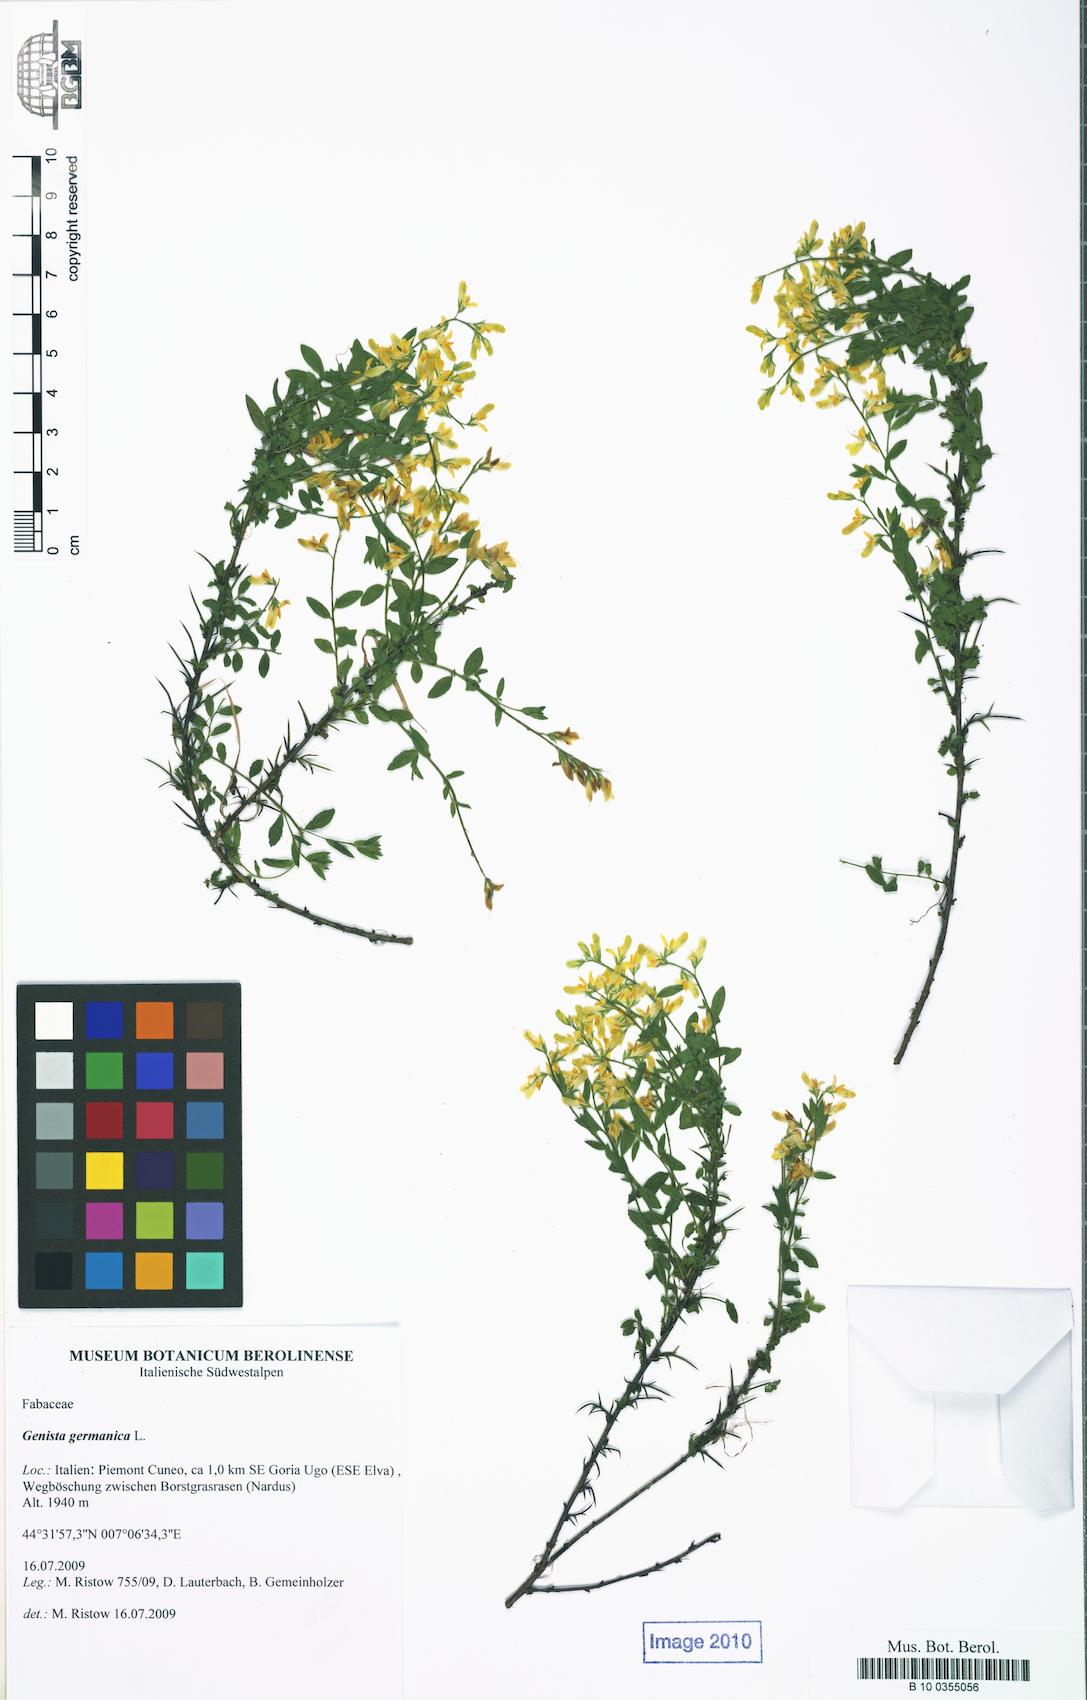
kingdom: Plantae
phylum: Tracheophyta
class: Magnoliopsida
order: Fabales
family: Fabaceae
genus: Genista
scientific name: Genista germanica
